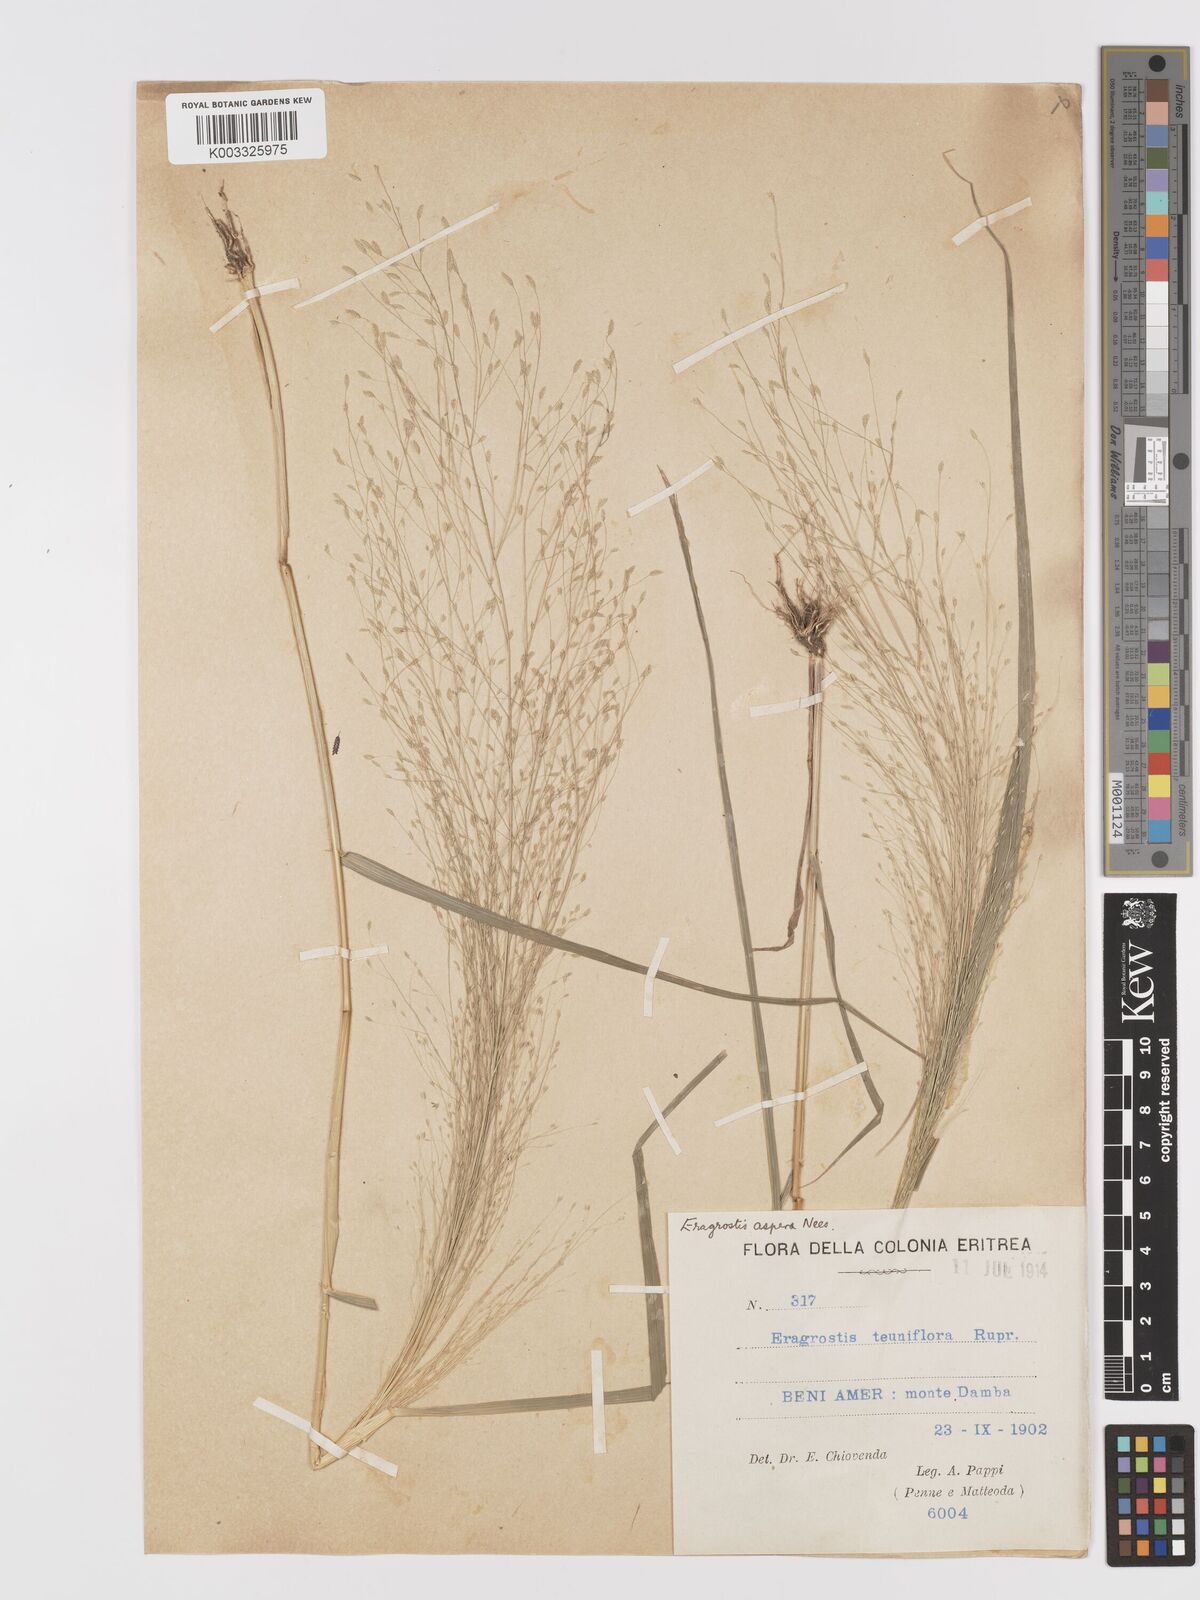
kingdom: Plantae
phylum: Tracheophyta
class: Liliopsida
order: Poales
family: Poaceae
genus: Eragrostis
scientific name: Eragrostis aspera
